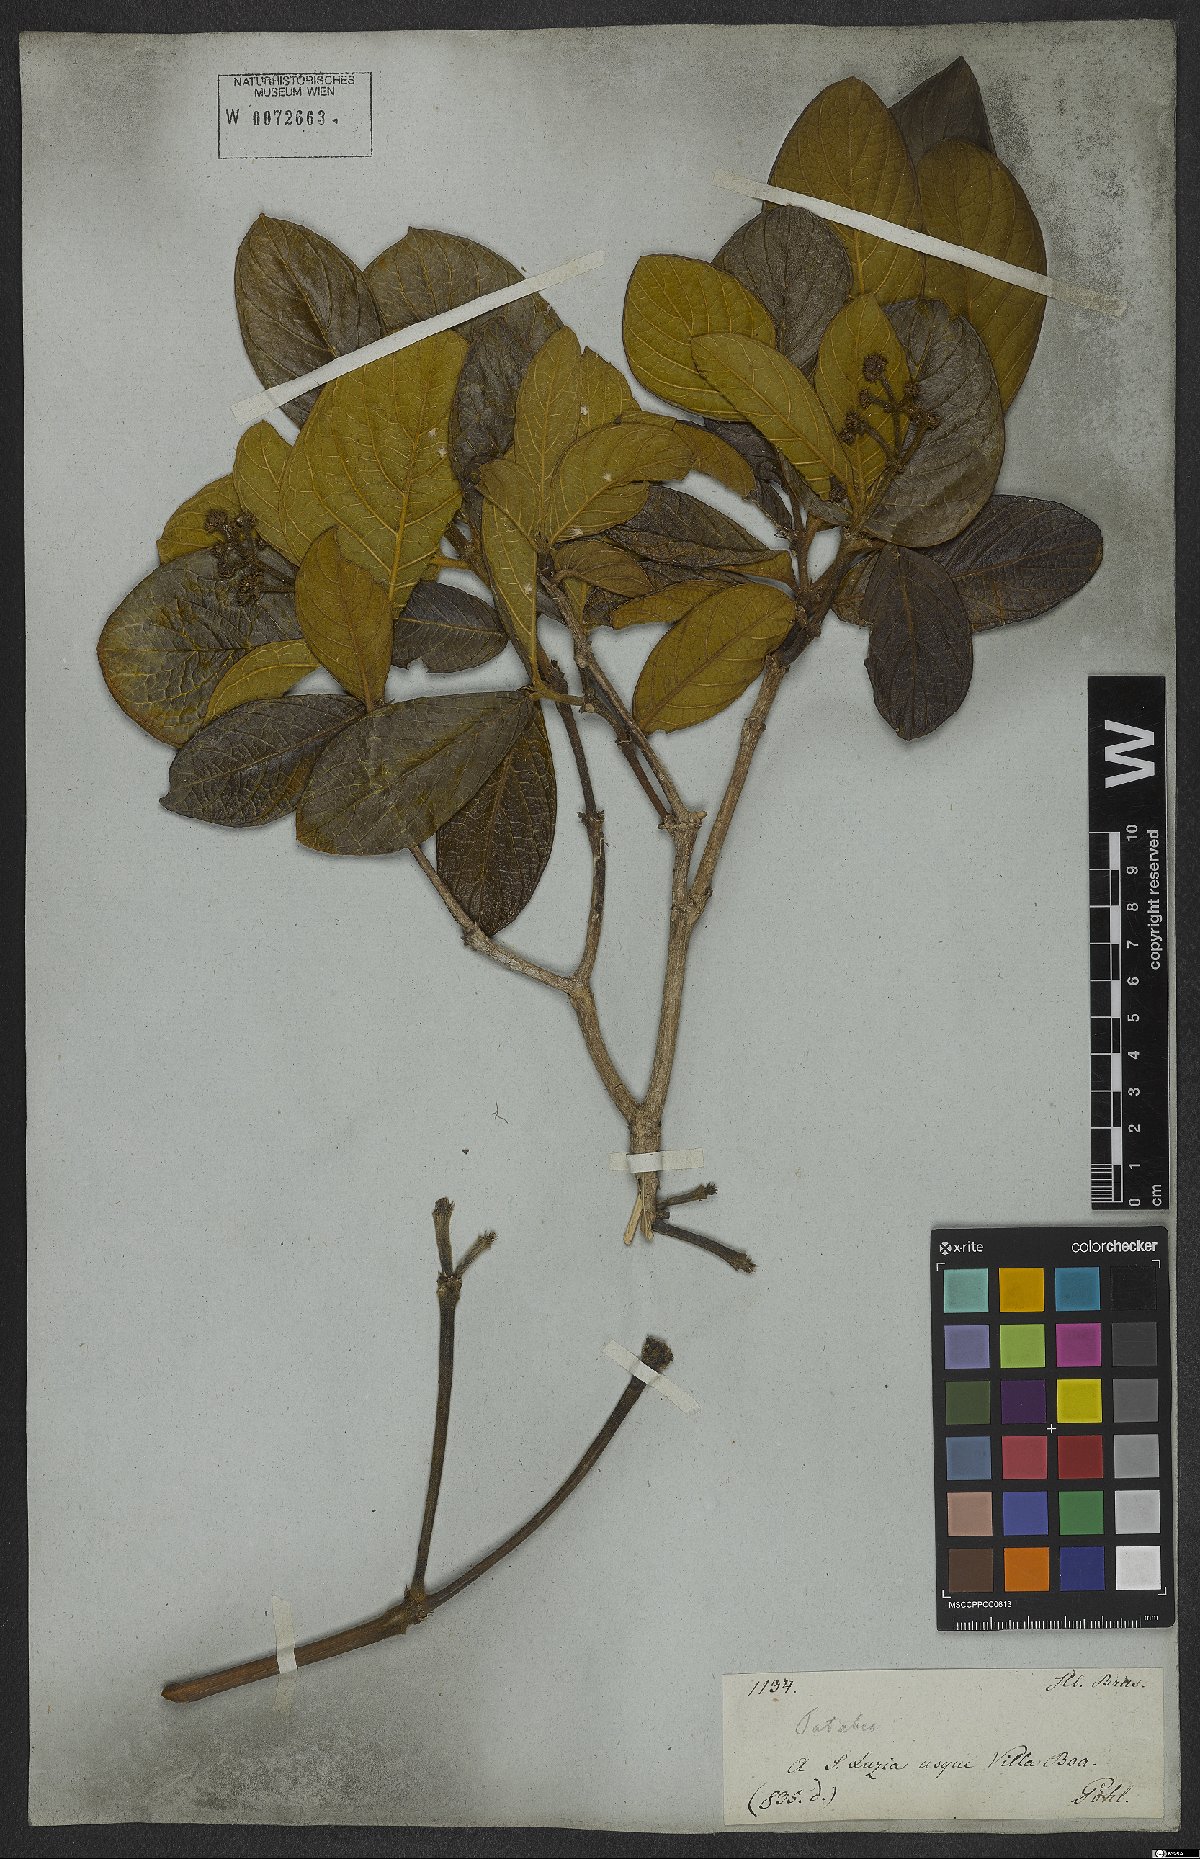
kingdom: Plantae
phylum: Tracheophyta
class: Magnoliopsida
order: Gentianales
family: Rubiaceae
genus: Rudgea
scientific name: Rudgea viburnoides
